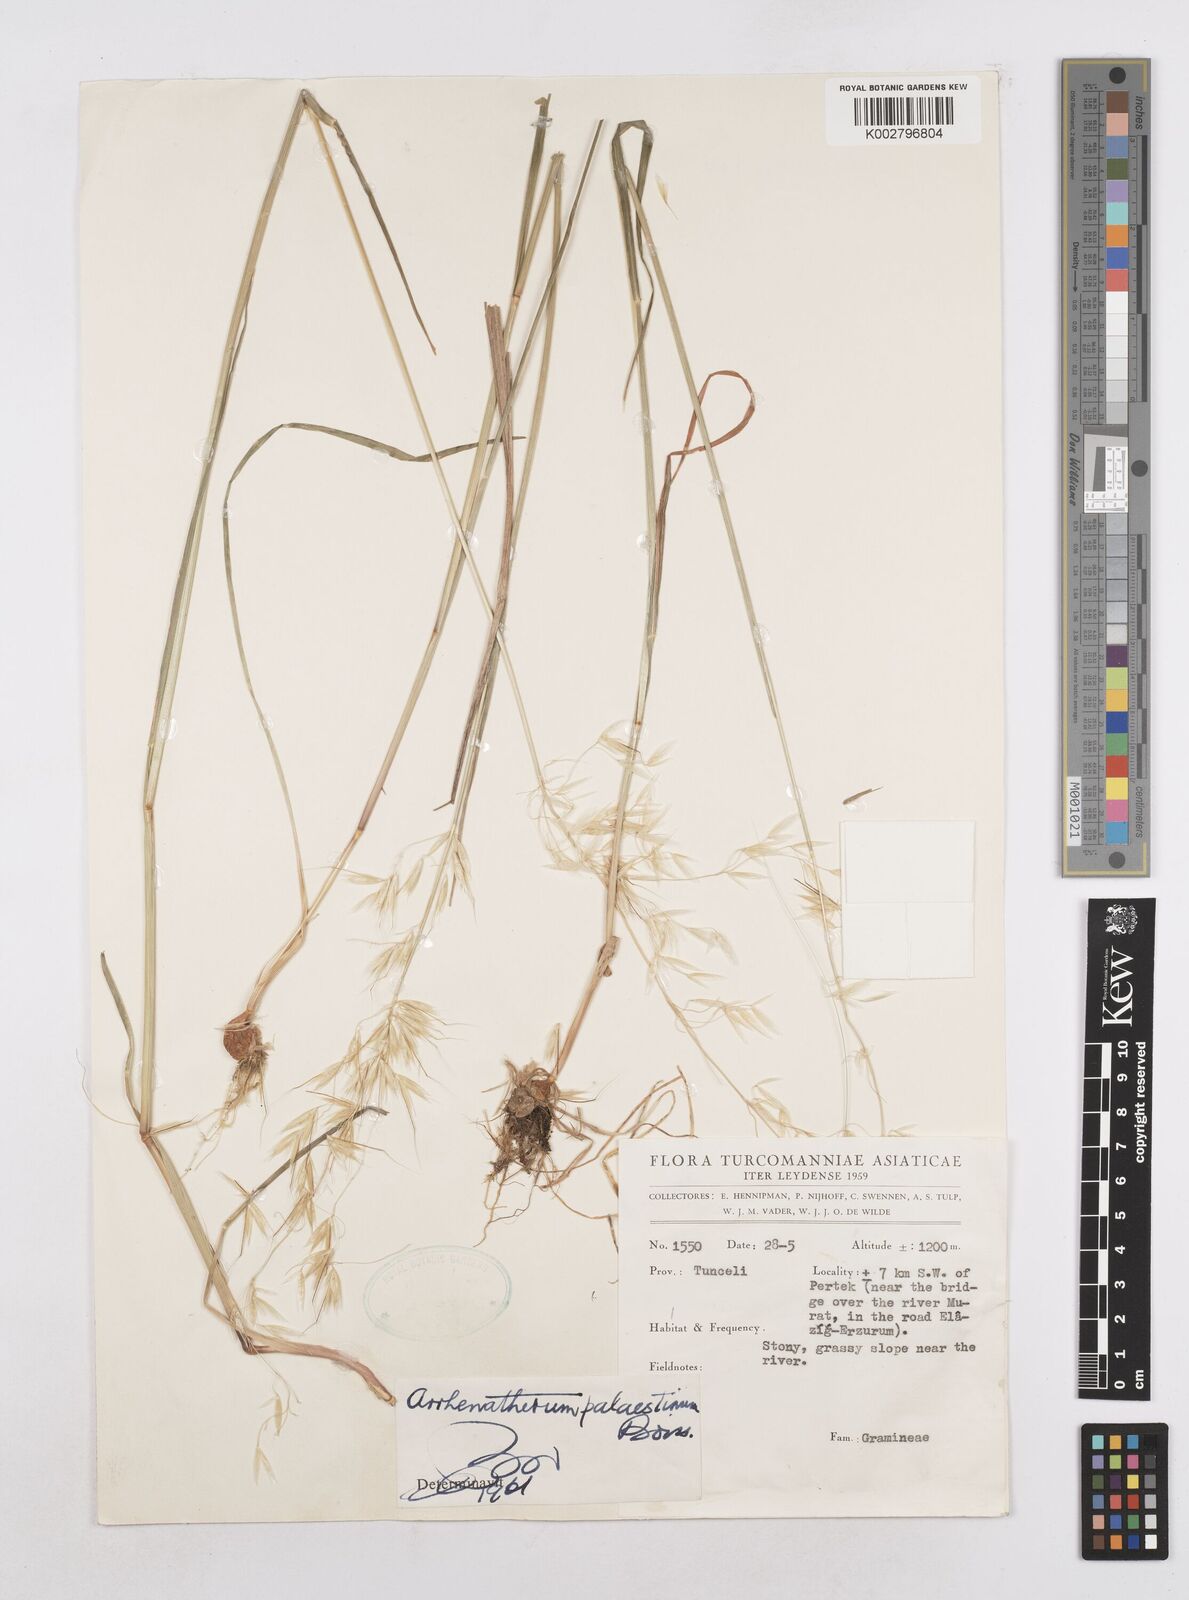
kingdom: Plantae
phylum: Tracheophyta
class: Liliopsida
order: Poales
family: Poaceae
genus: Arrhenatherum
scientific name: Arrhenatherum palaestinum
